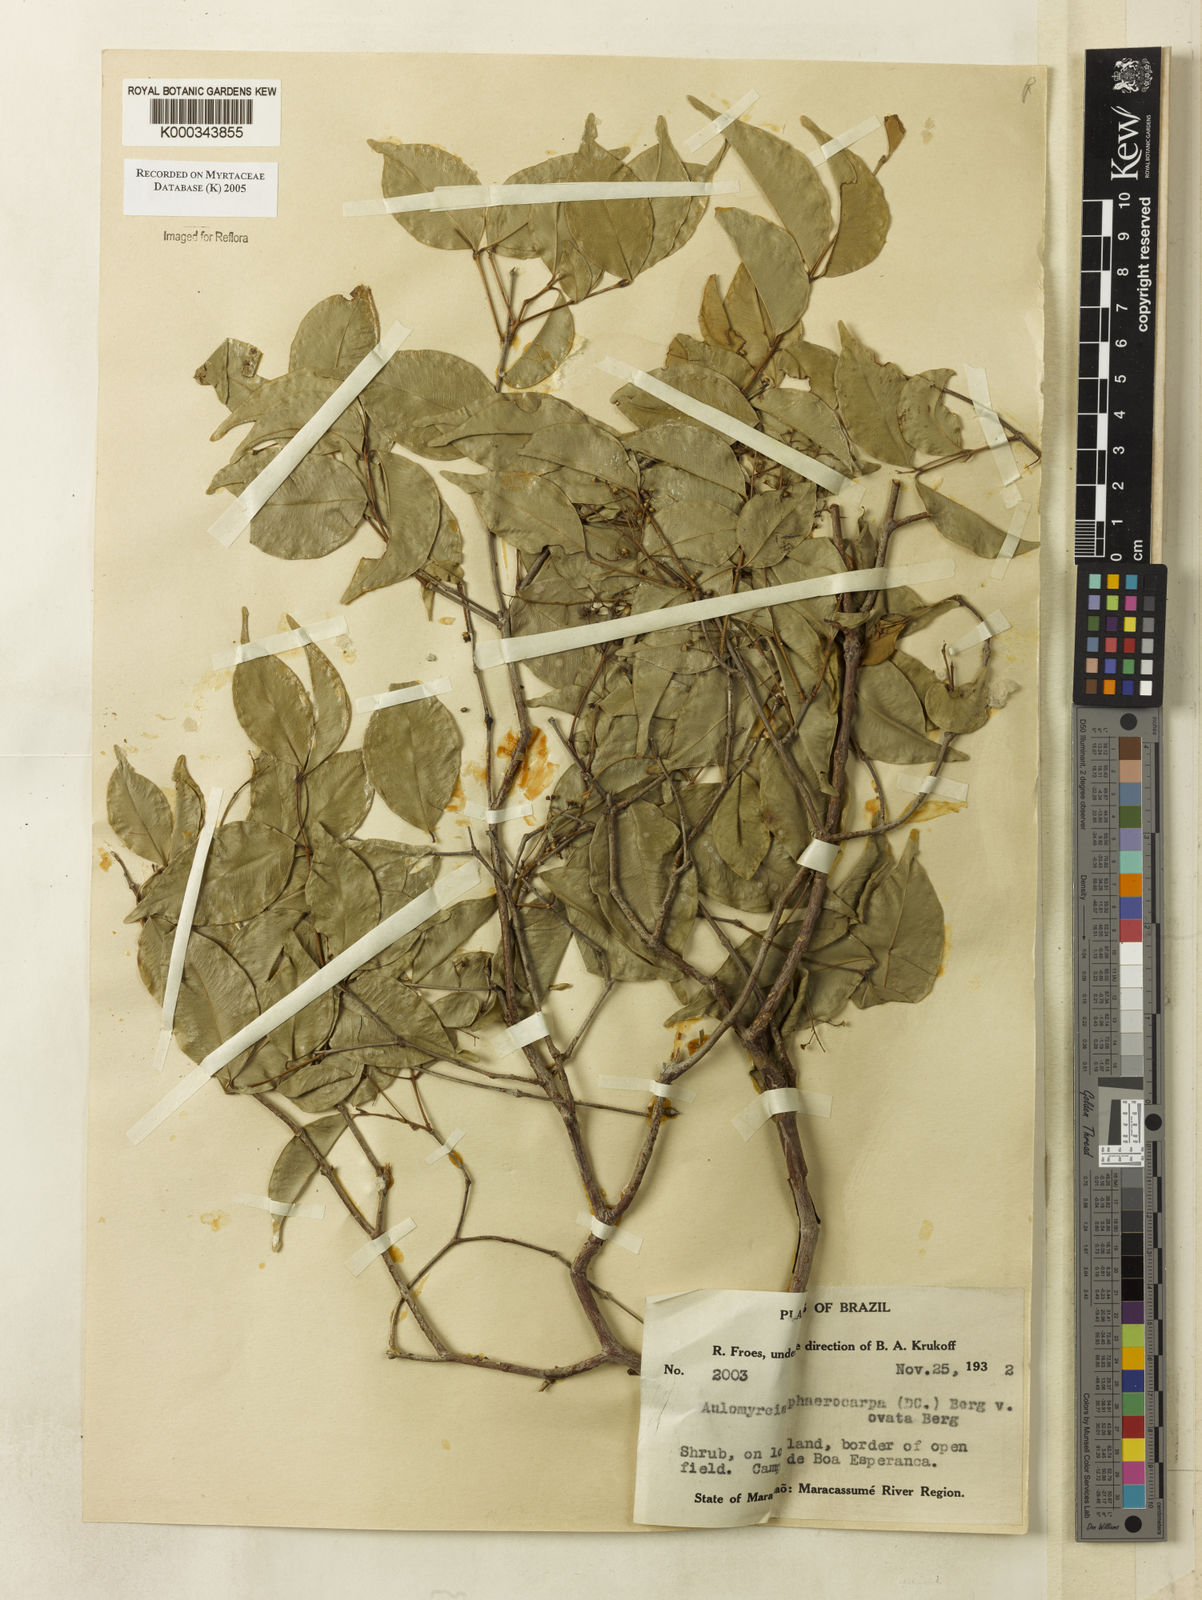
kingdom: Plantae
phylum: Tracheophyta
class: Magnoliopsida
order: Myrtales
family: Myrtaceae
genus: Myrcia
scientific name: Myrcia multiflora
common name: Pedra hume
